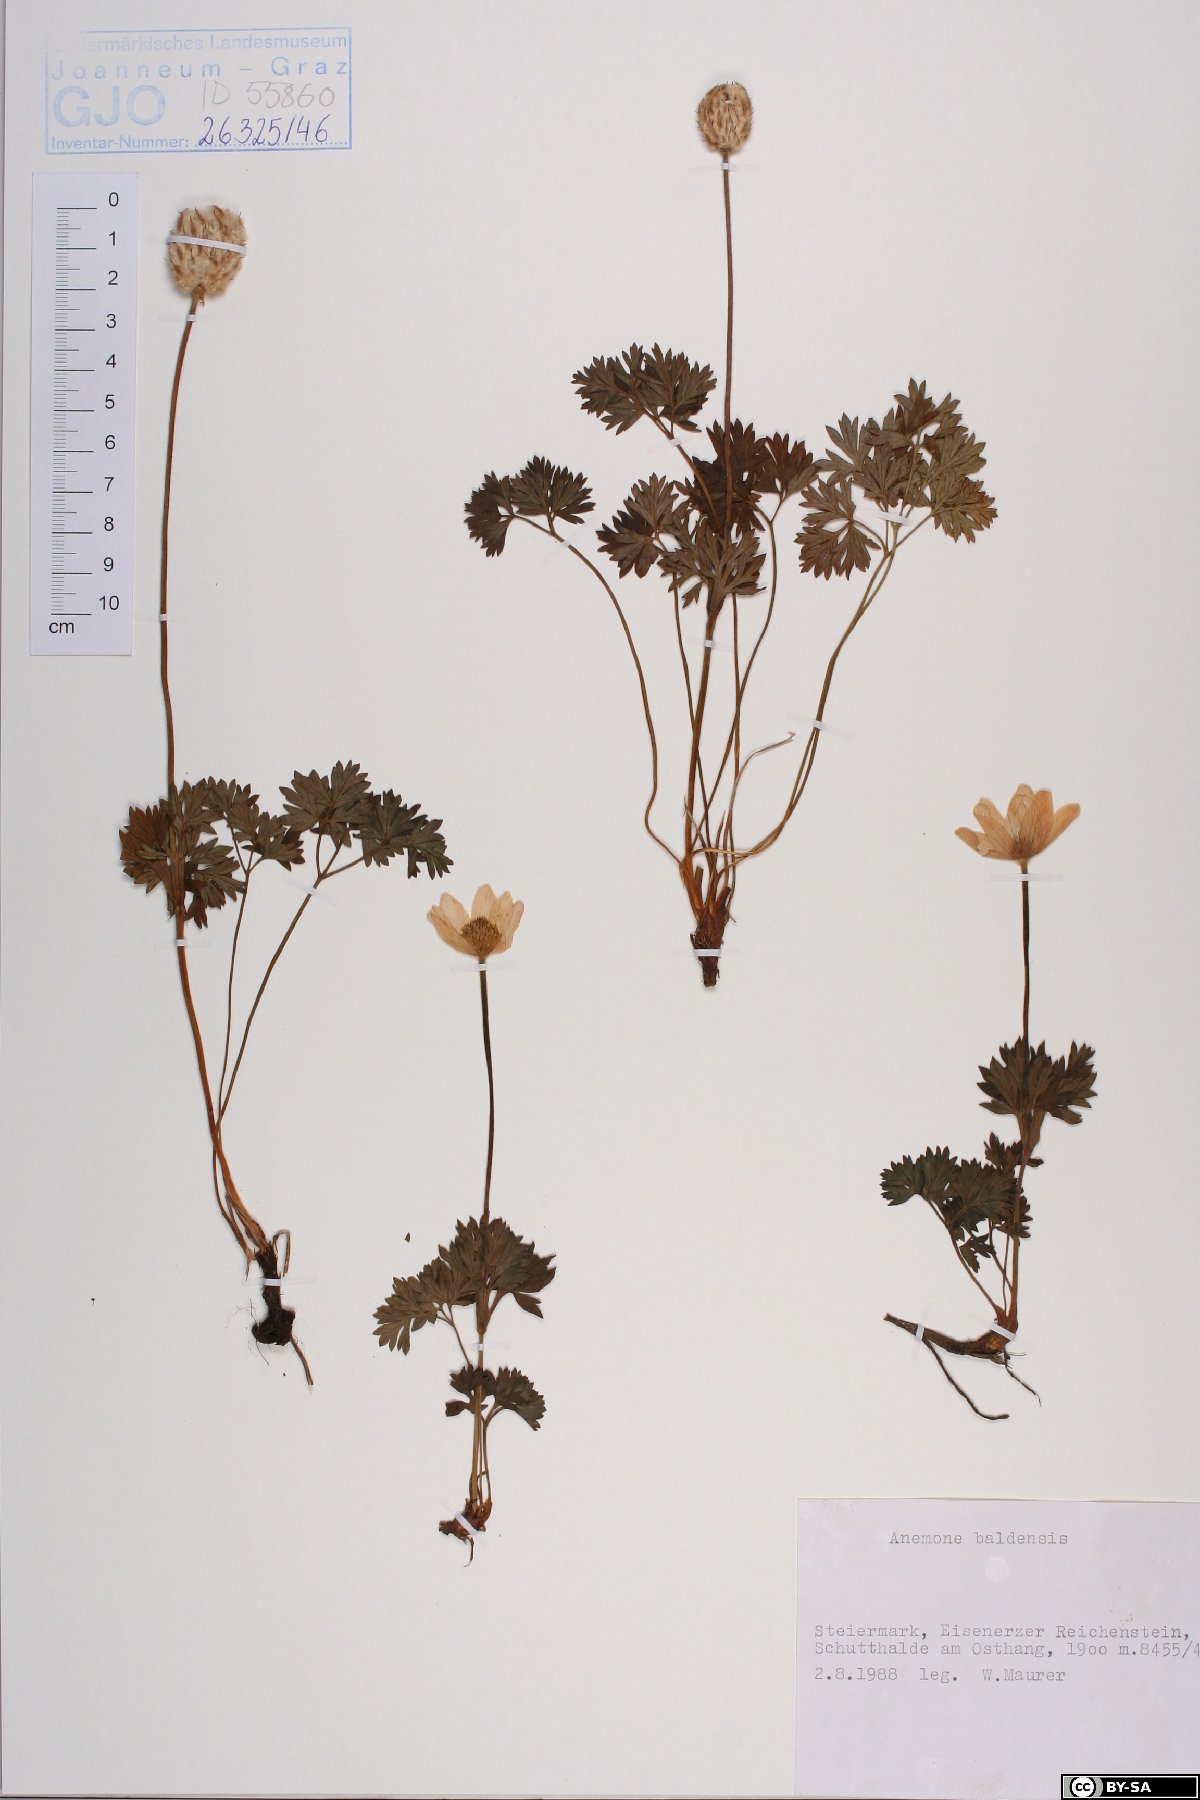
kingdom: Plantae
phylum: Tracheophyta
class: Magnoliopsida
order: Ranunculales
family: Ranunculaceae
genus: Anemone
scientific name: Anemone baldensis
